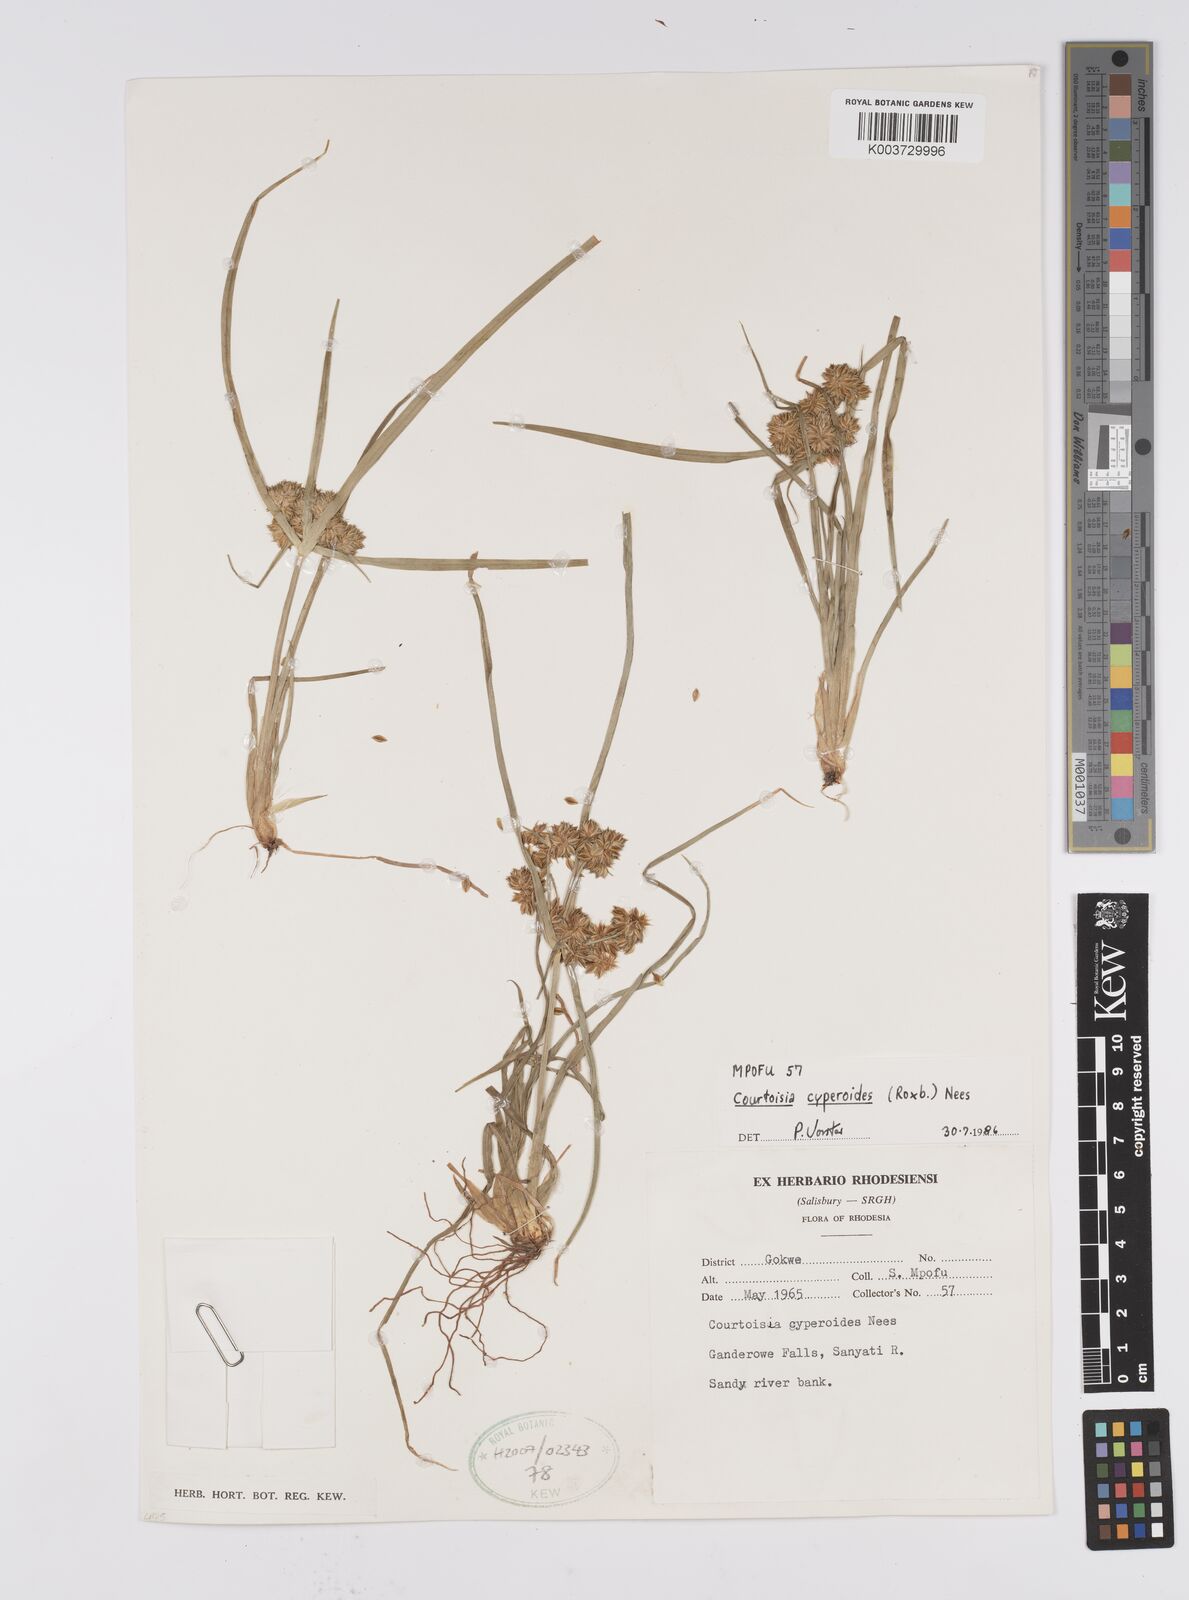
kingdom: Plantae
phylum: Tracheophyta
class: Liliopsida
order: Poales
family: Cyperaceae
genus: Cyperus
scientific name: Cyperus cyperoides
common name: Pacific island flat sedge
